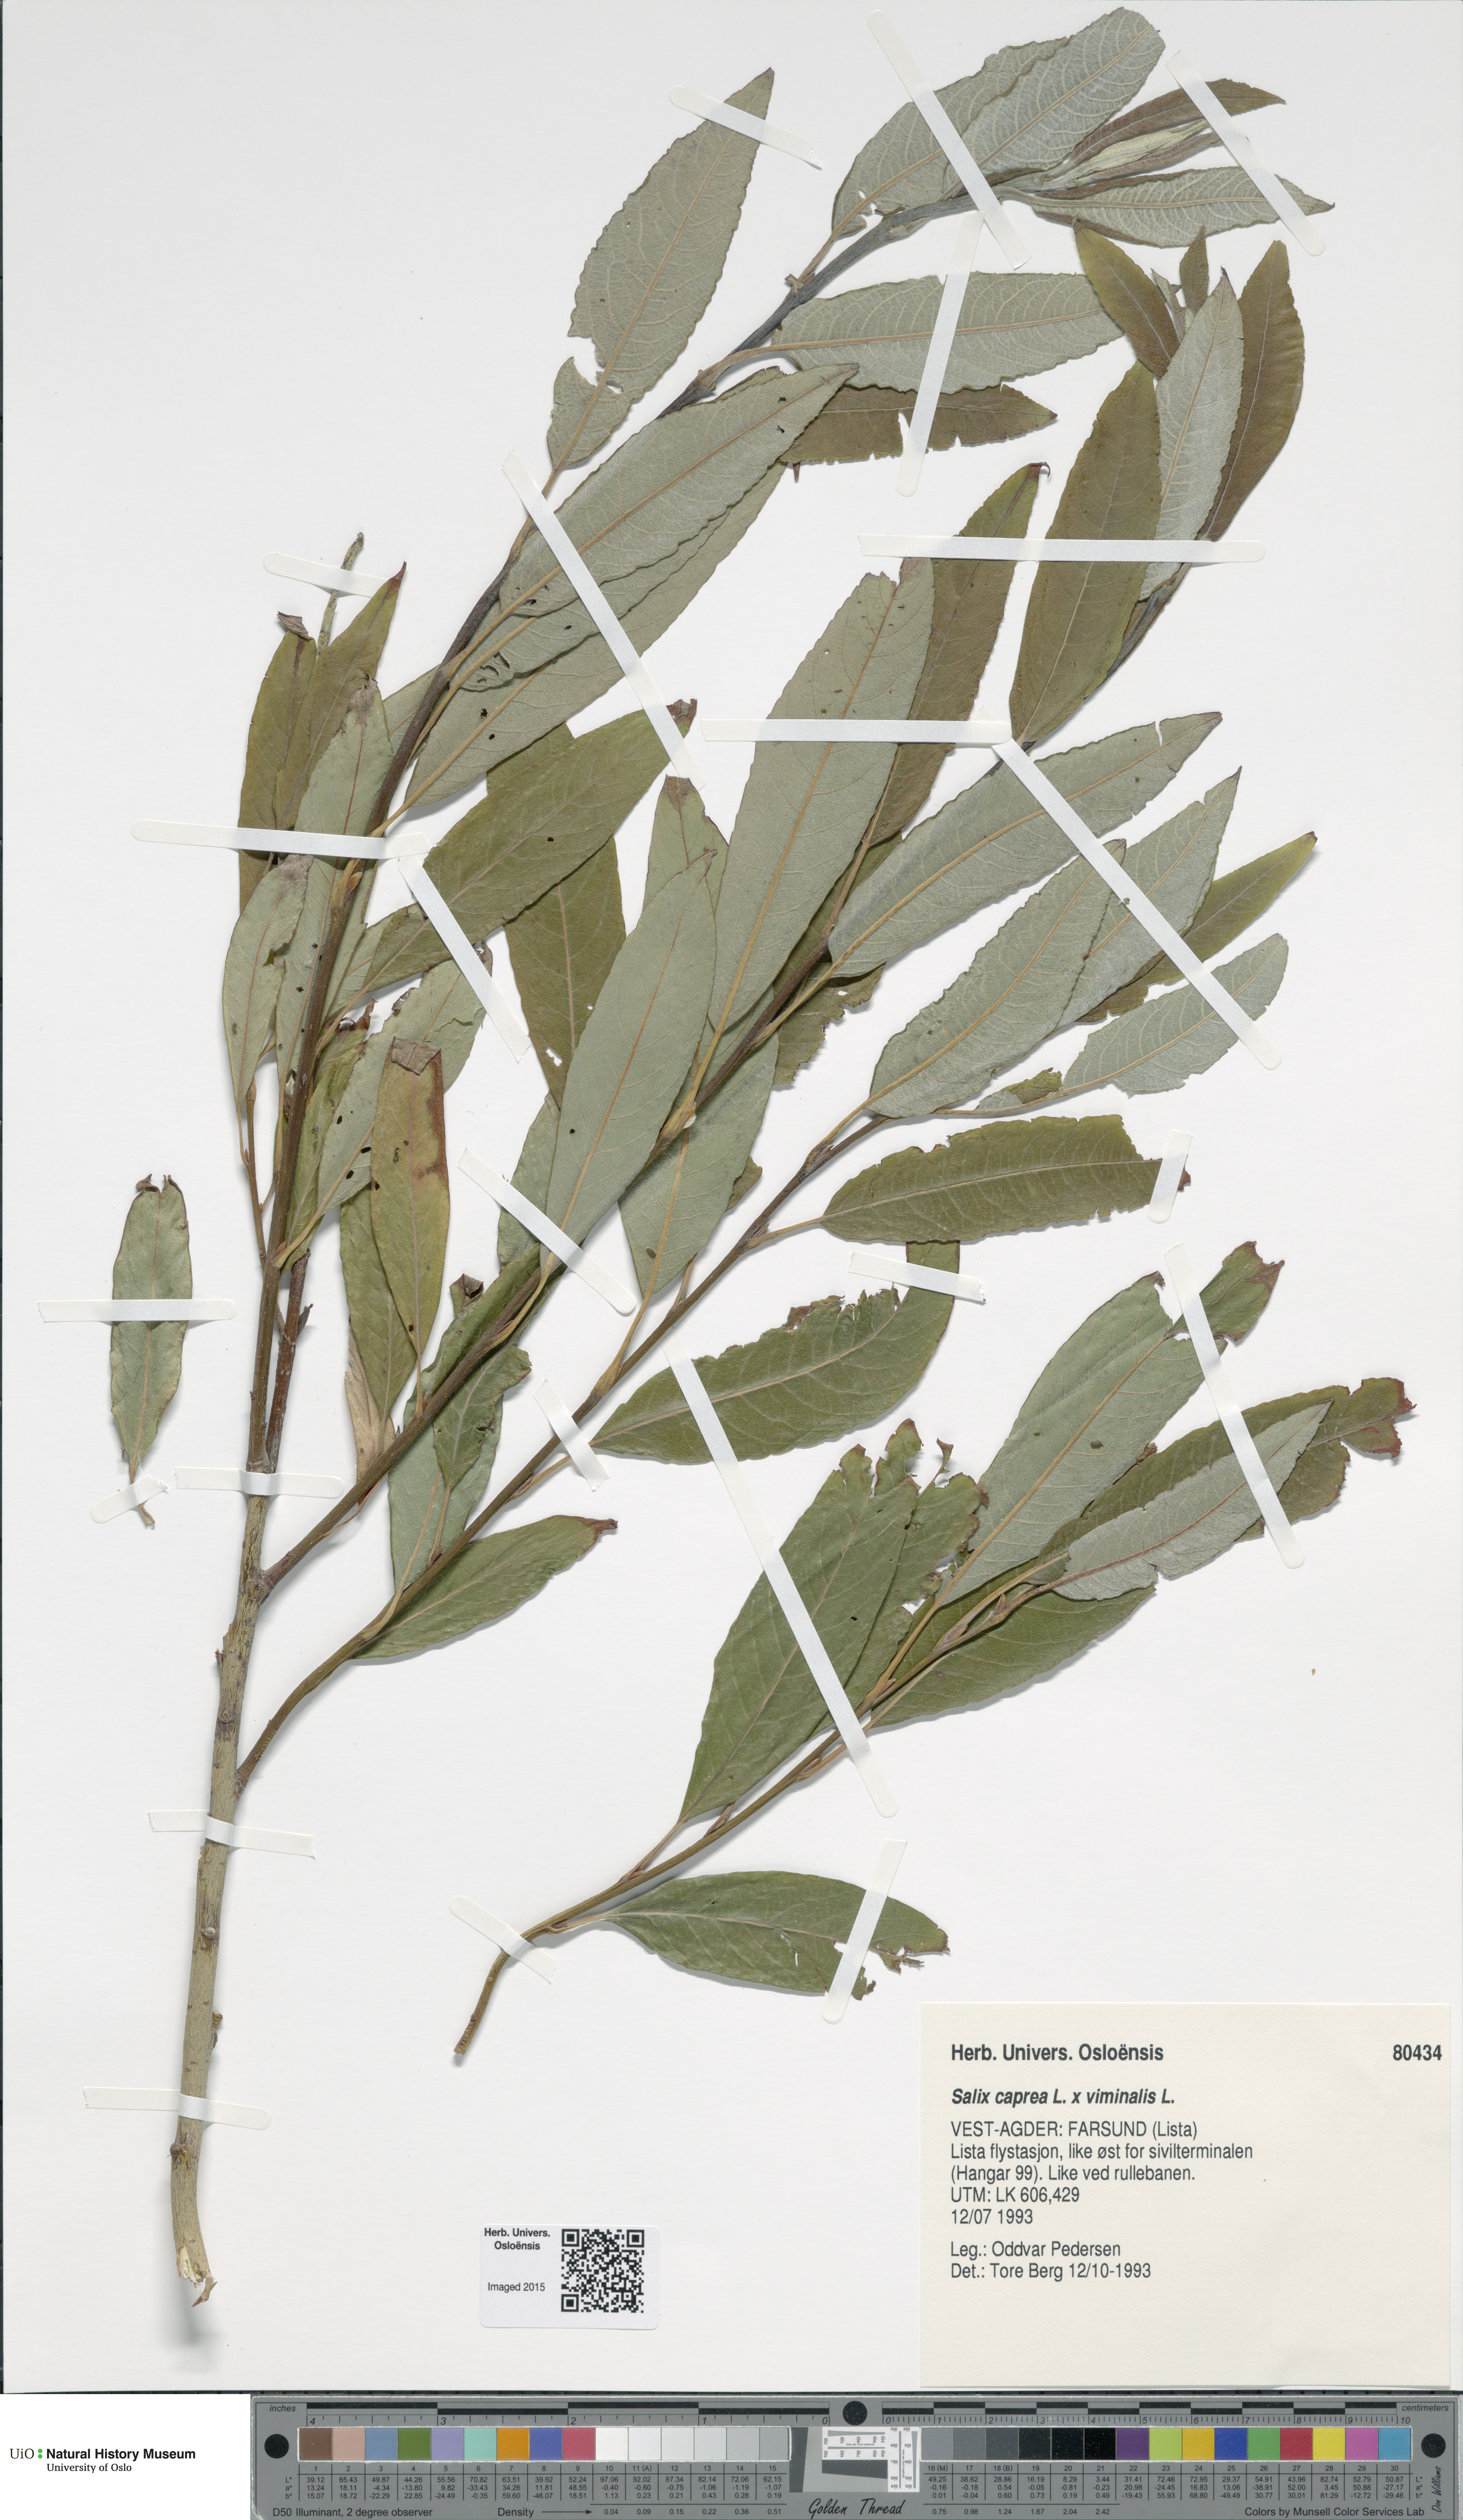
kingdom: Plantae
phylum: Tracheophyta
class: Magnoliopsida
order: Malpighiales
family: Salicaceae
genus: Salix
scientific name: Salix
